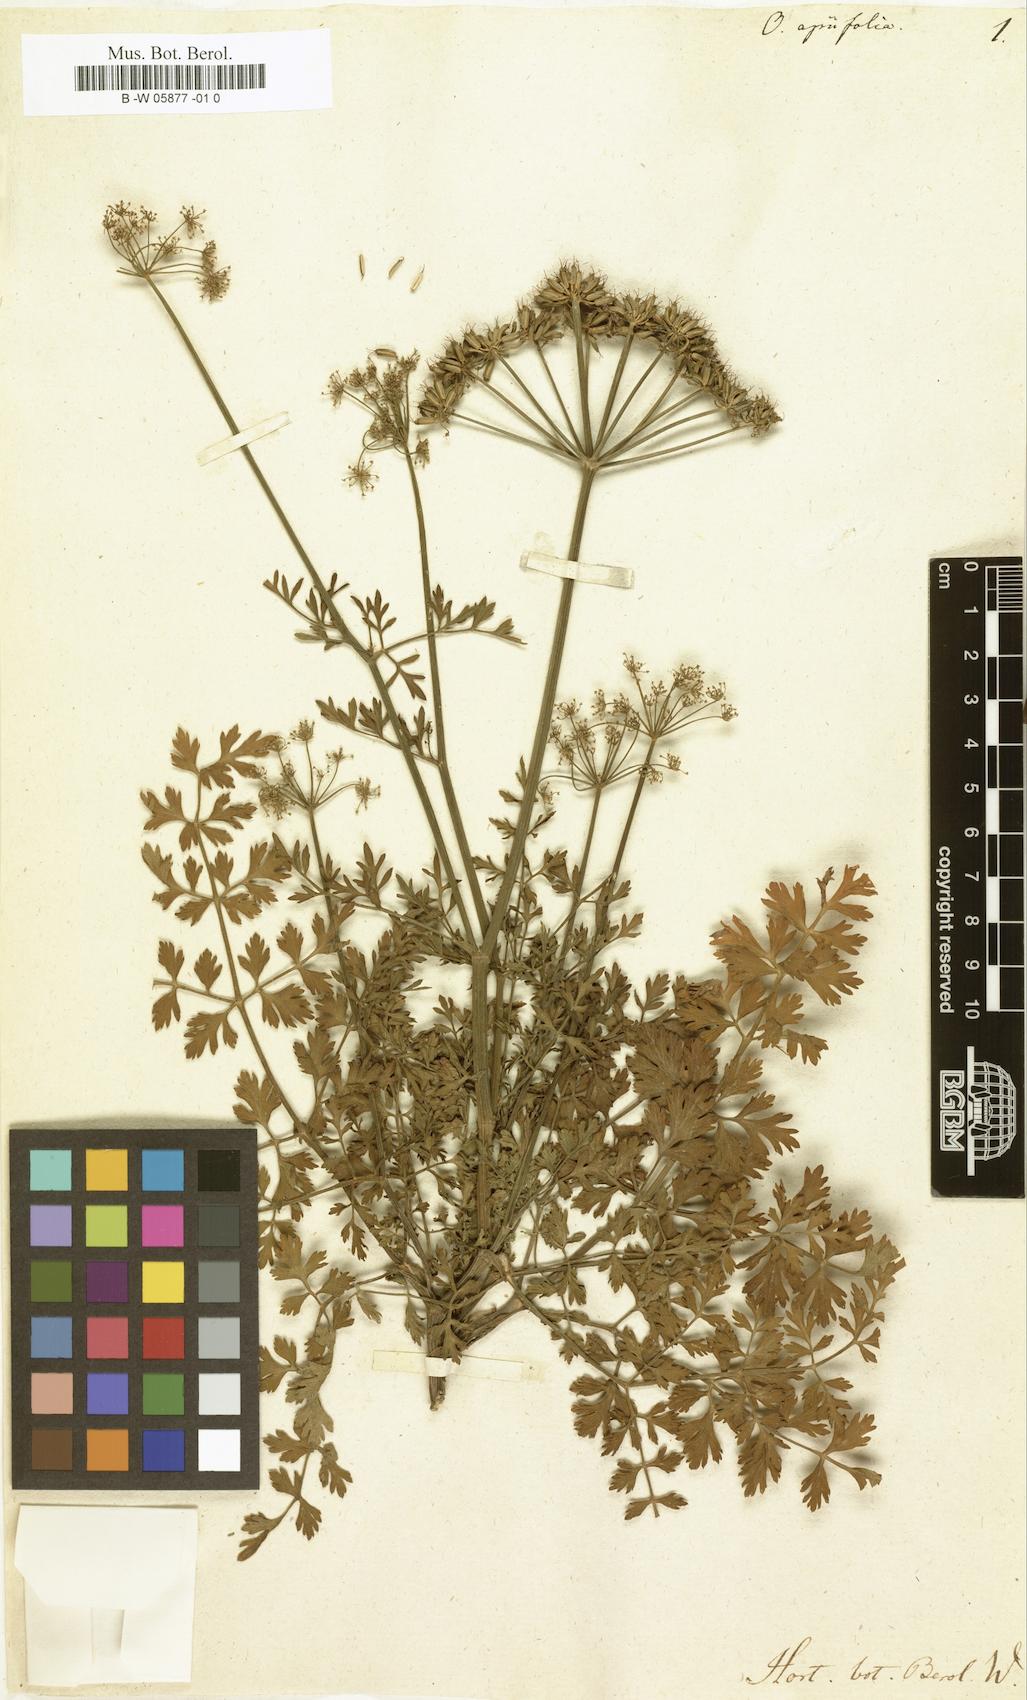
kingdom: Plantae
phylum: Tracheophyta
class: Magnoliopsida
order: Apiales
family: Apiaceae
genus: Oenanthe
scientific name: Oenanthe crocata
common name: Hemlock water-dropwort
